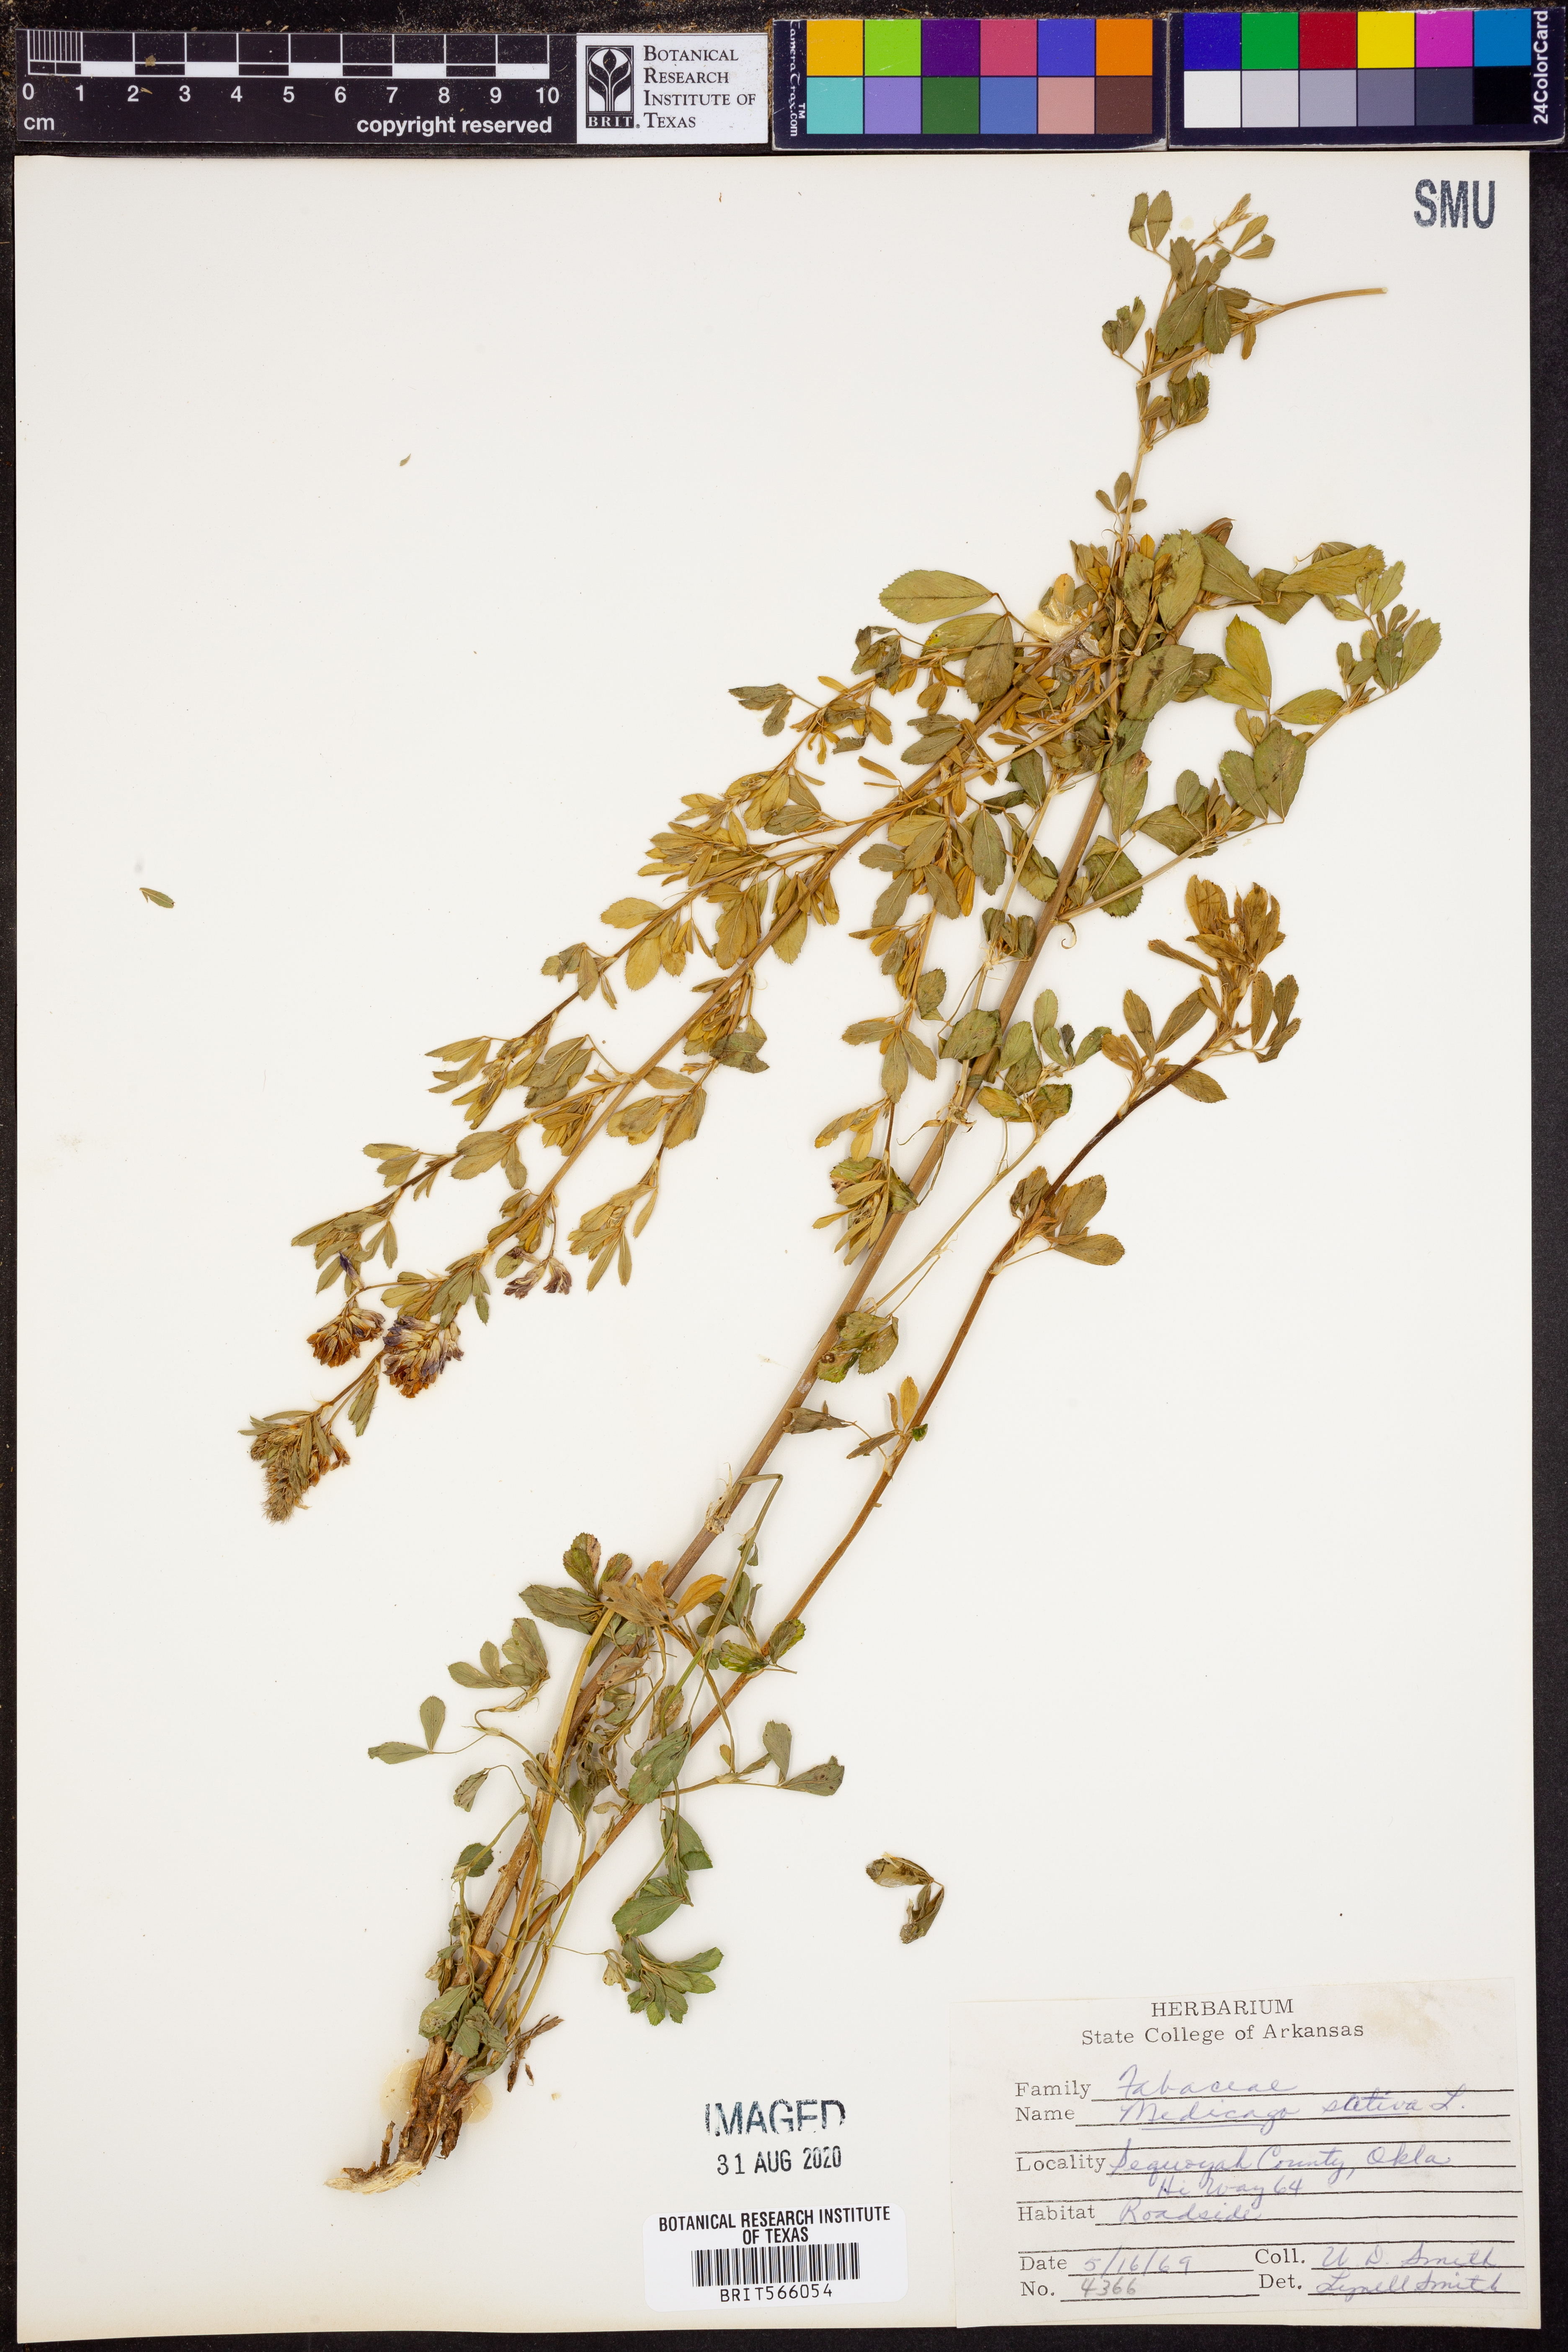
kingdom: Plantae
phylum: Tracheophyta
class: Magnoliopsida
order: Fabales
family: Fabaceae
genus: Medicago
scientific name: Medicago sativa
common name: Alfalfa
